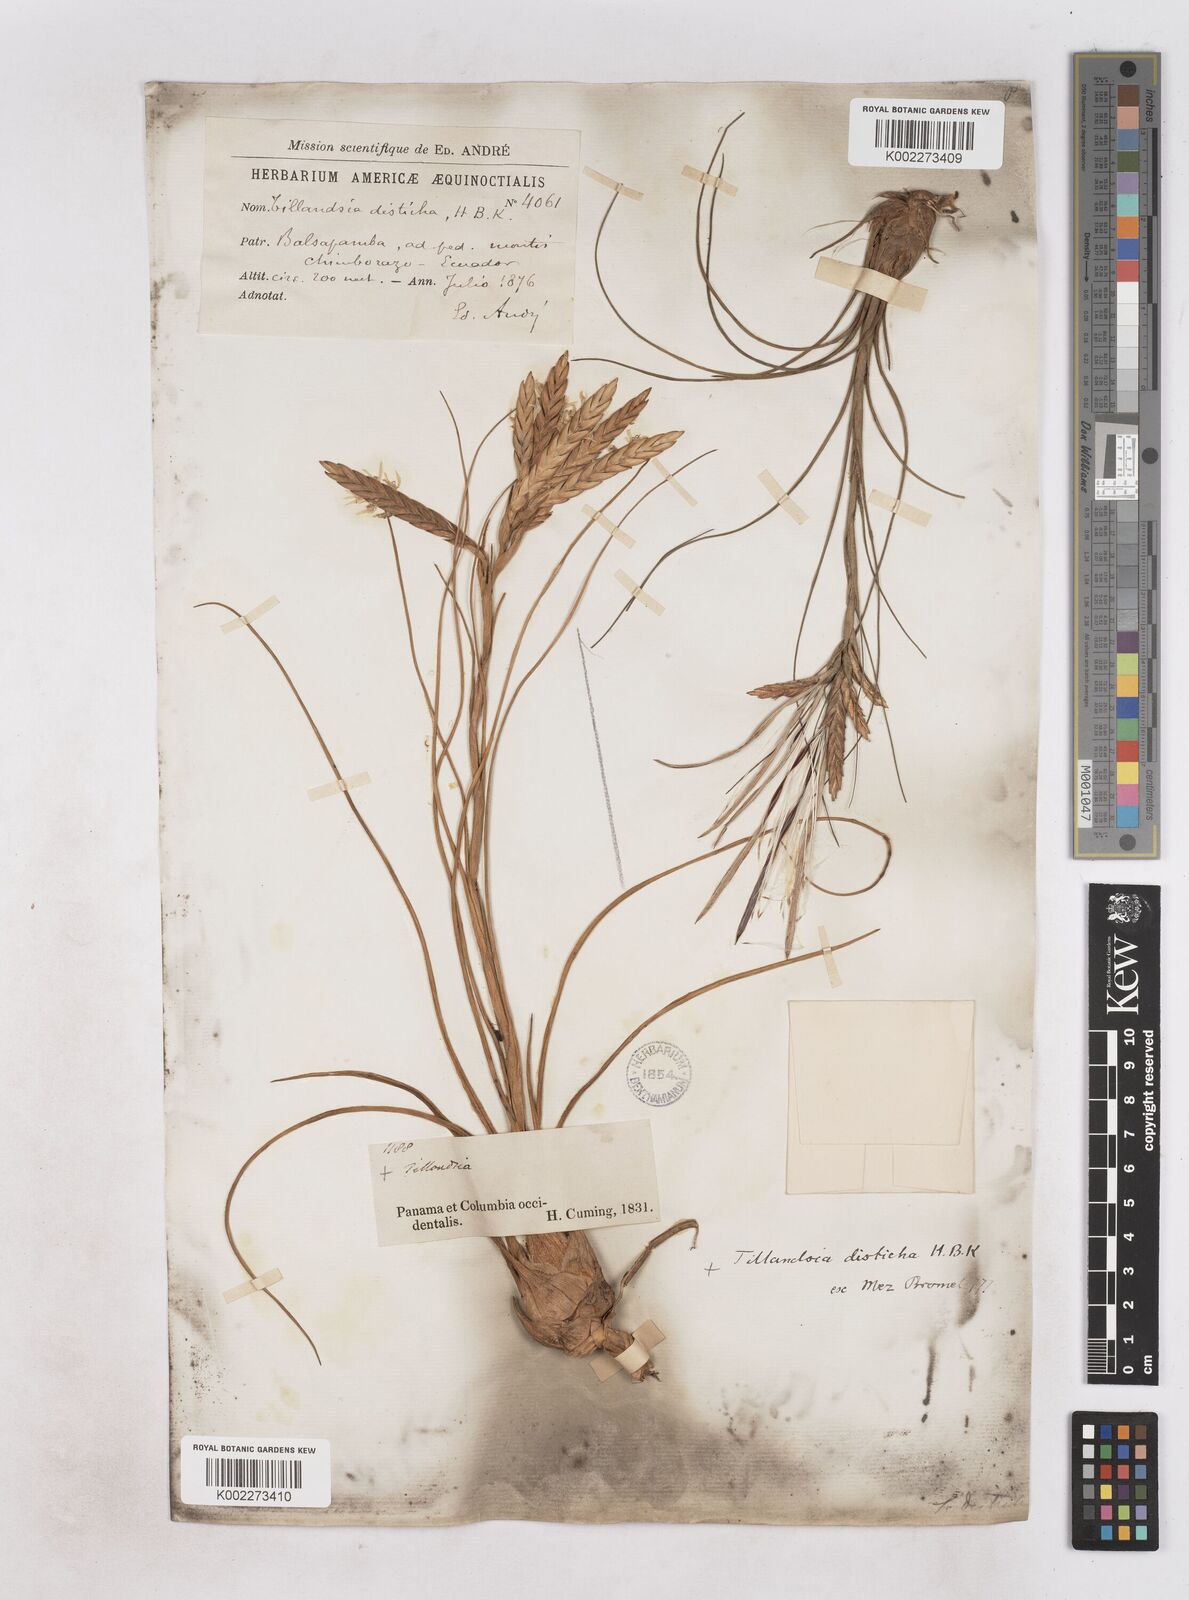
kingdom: Plantae
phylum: Tracheophyta
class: Liliopsida
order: Poales
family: Bromeliaceae
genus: Tillandsia
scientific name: Tillandsia
